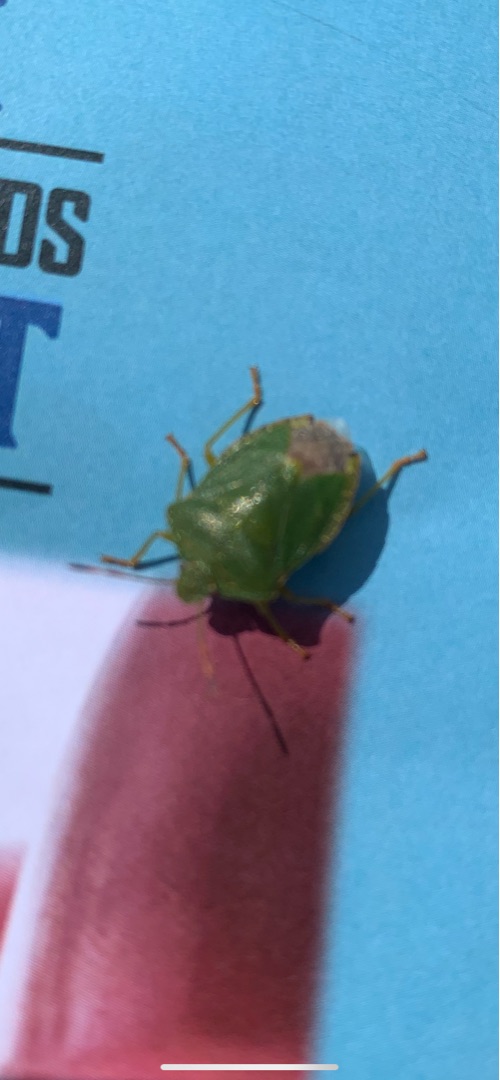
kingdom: Animalia
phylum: Arthropoda
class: Insecta
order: Hemiptera
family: Pentatomidae
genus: Palomena
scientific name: Palomena prasina
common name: Grøn bredtæge
